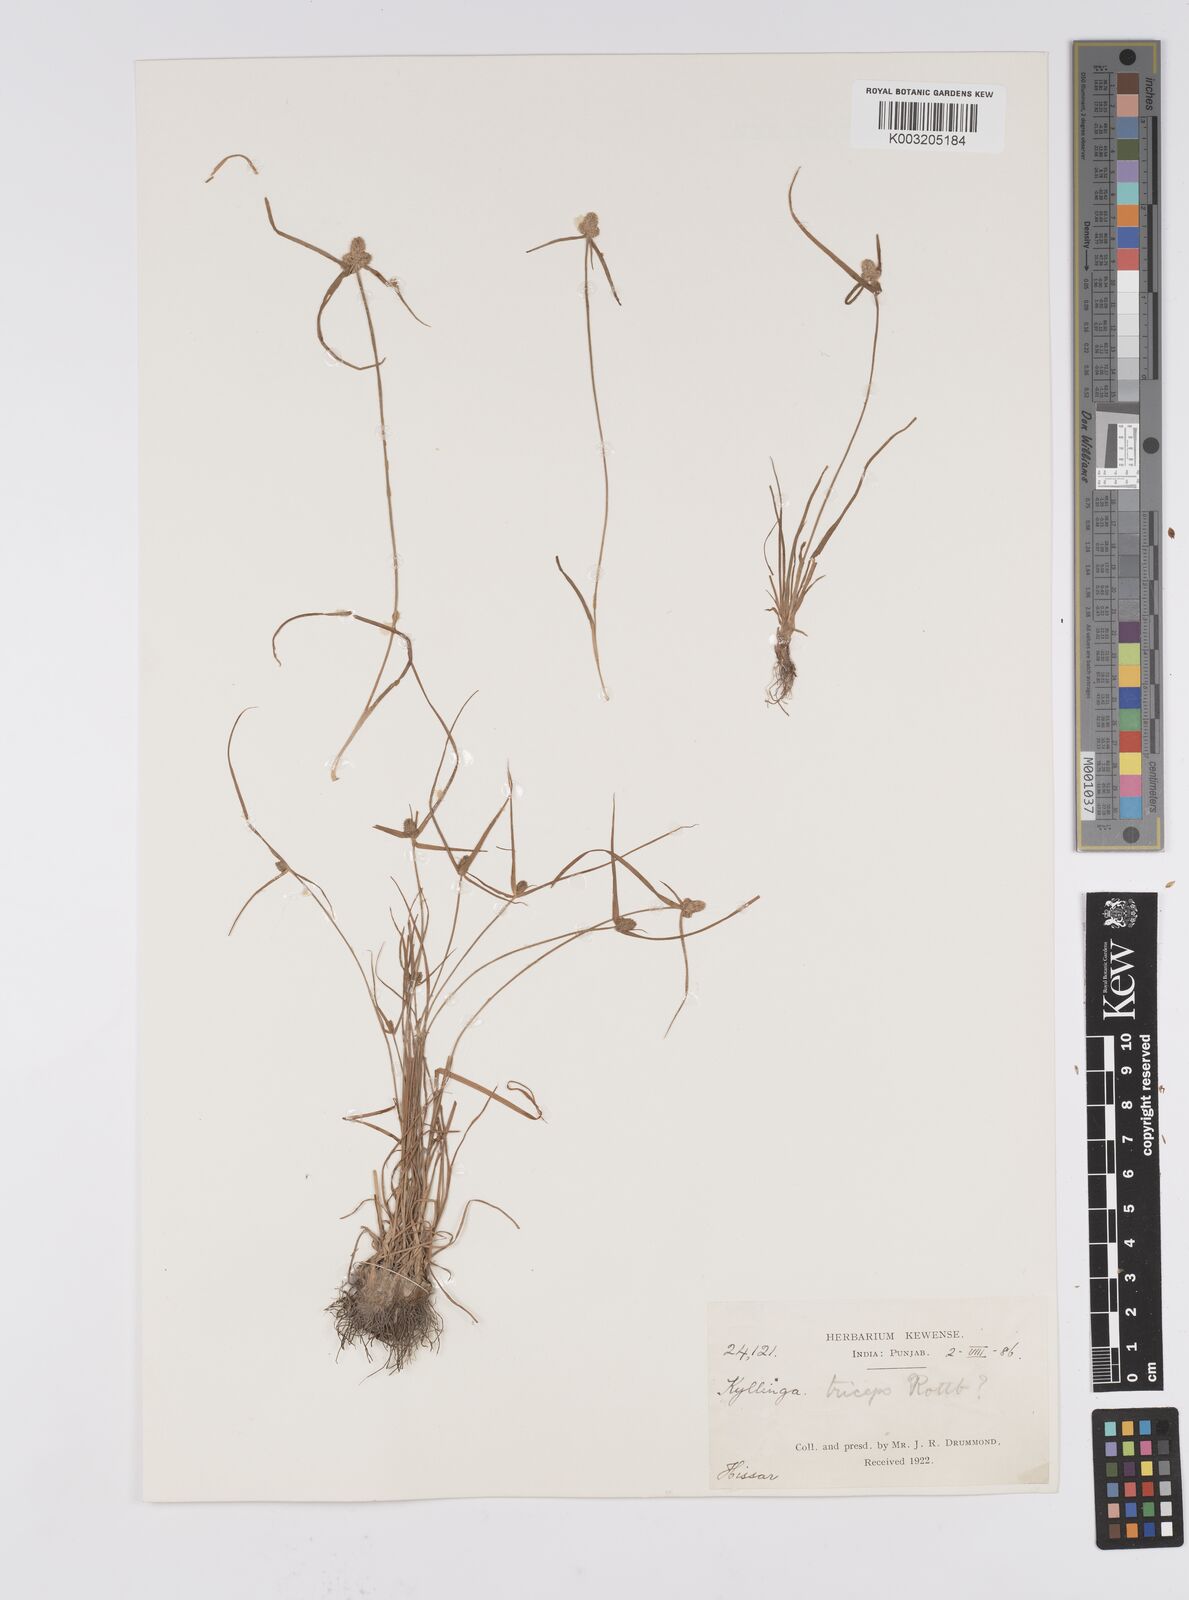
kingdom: Plantae
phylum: Tracheophyta
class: Liliopsida
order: Poales
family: Cyperaceae
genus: Cyperus
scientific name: Cyperus
